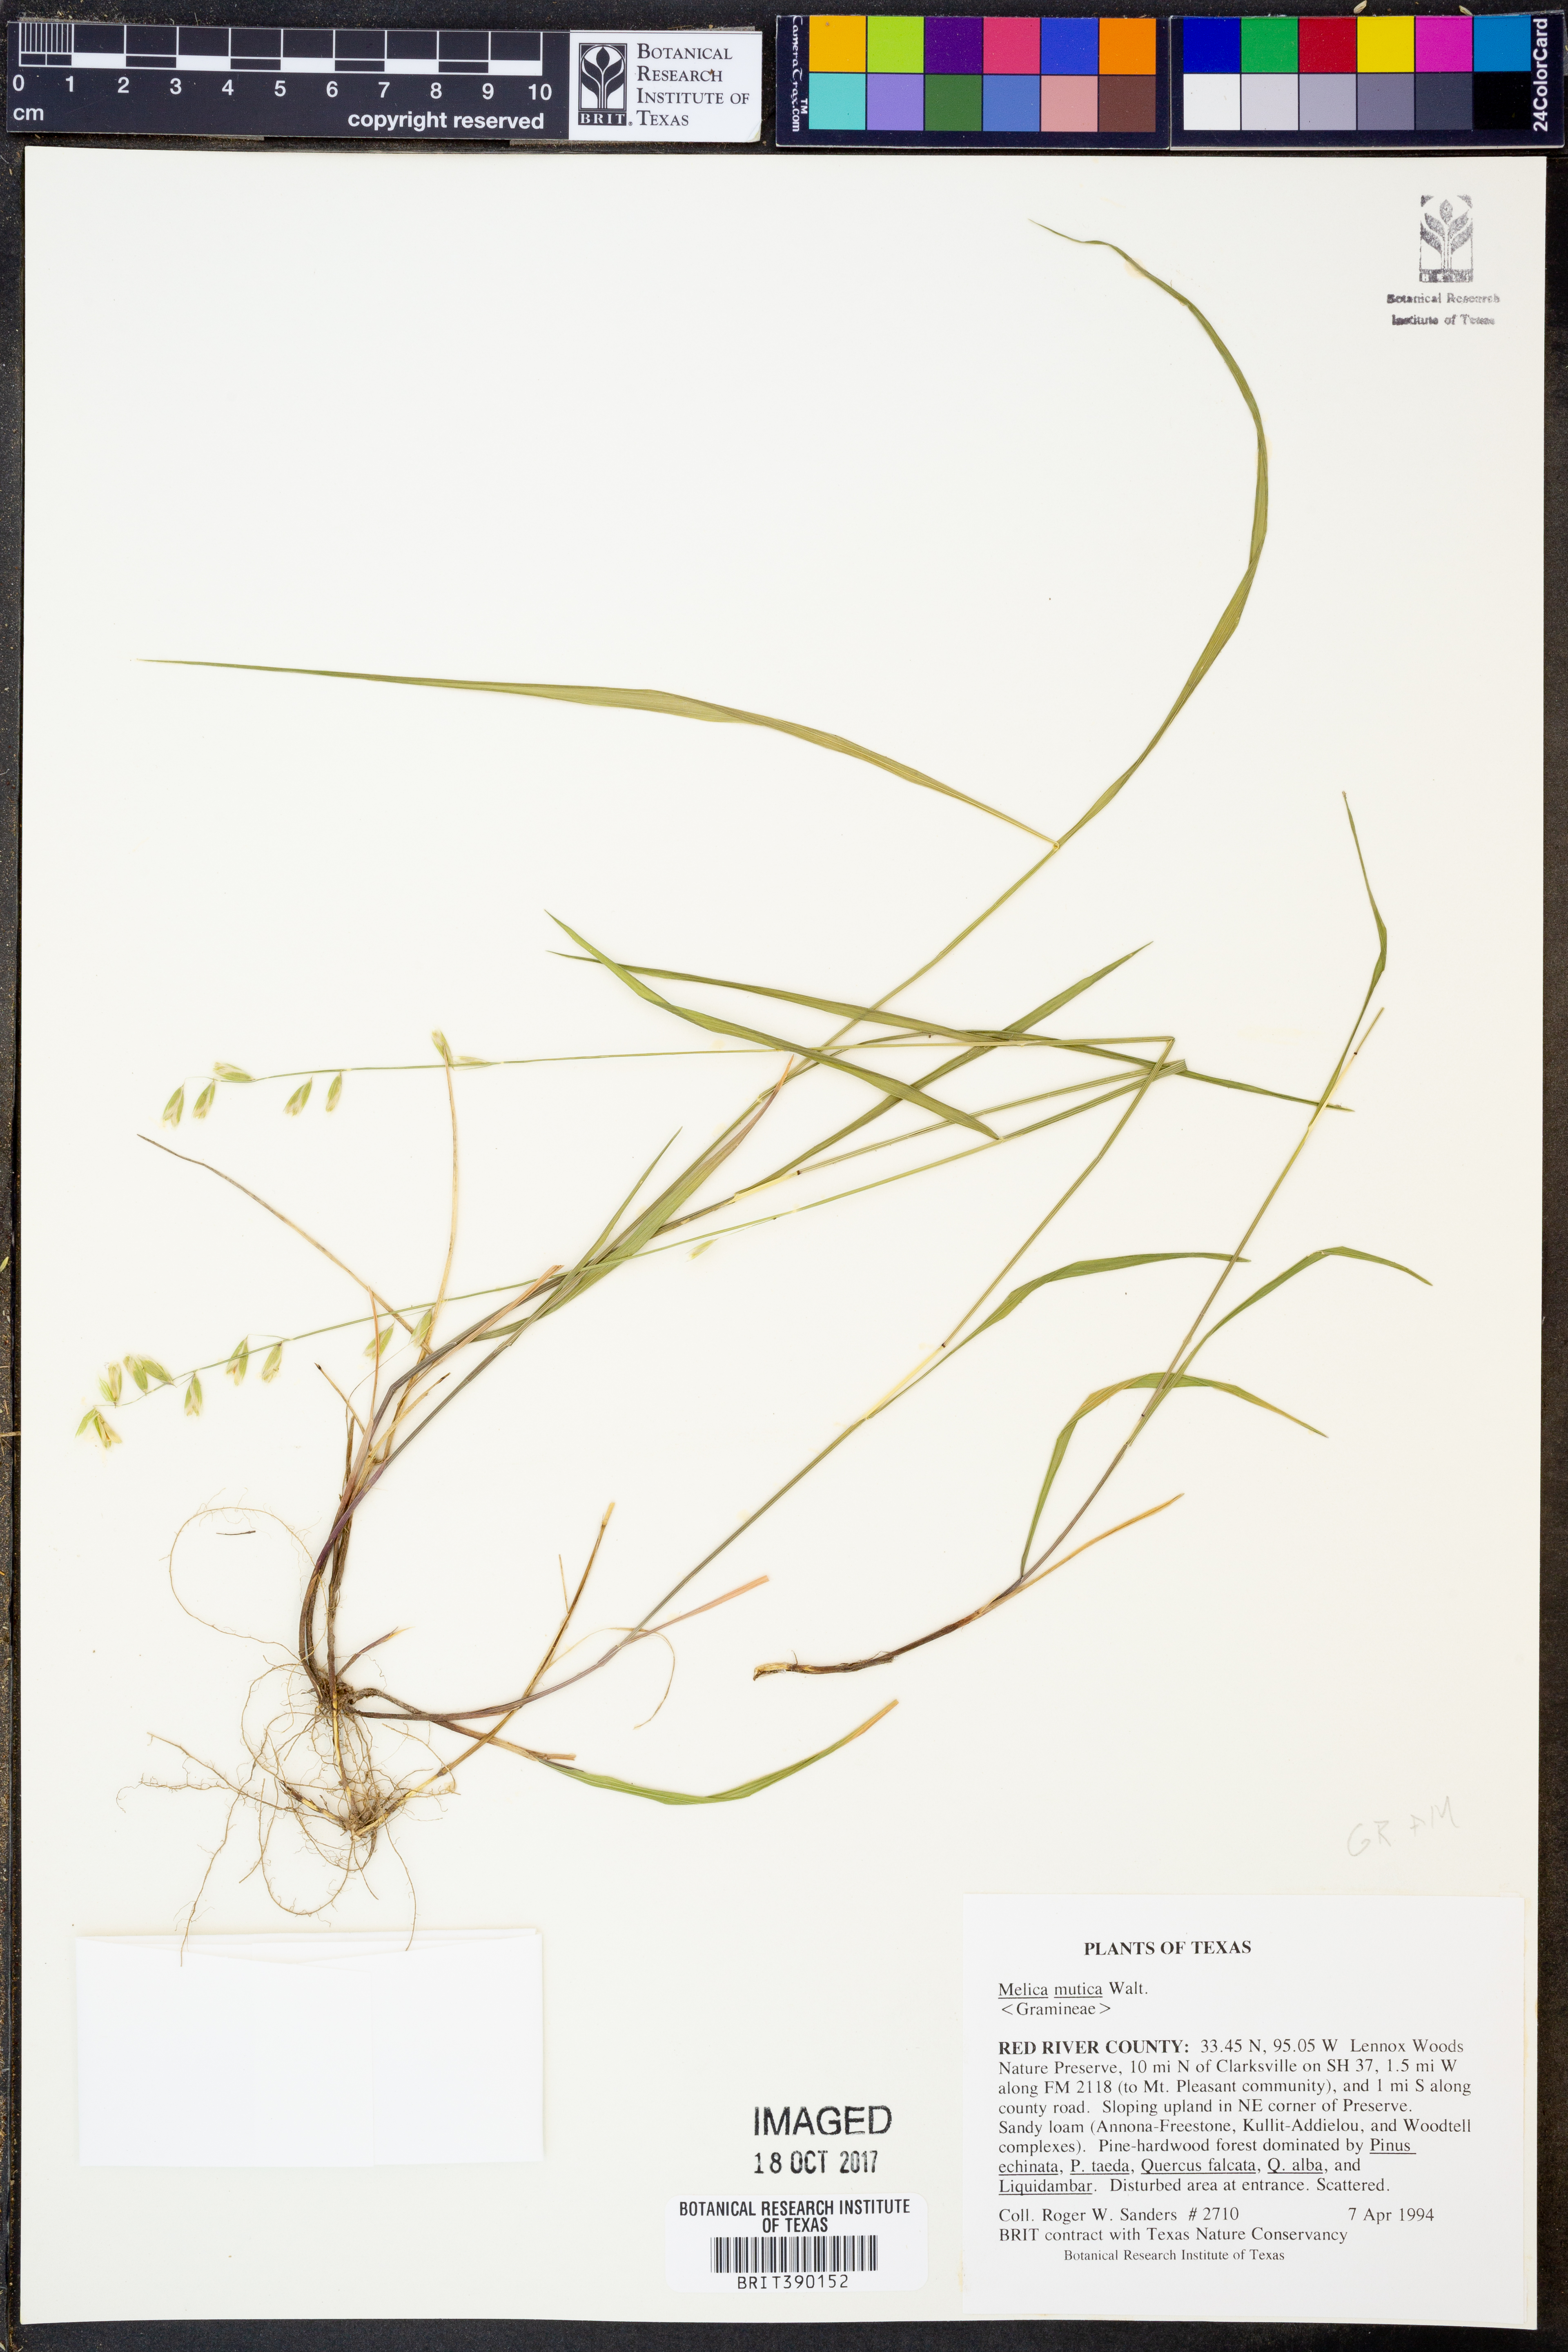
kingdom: Plantae
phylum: Tracheophyta
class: Liliopsida
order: Poales
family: Poaceae
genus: Melica
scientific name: Melica mutica
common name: Two-flower melic
